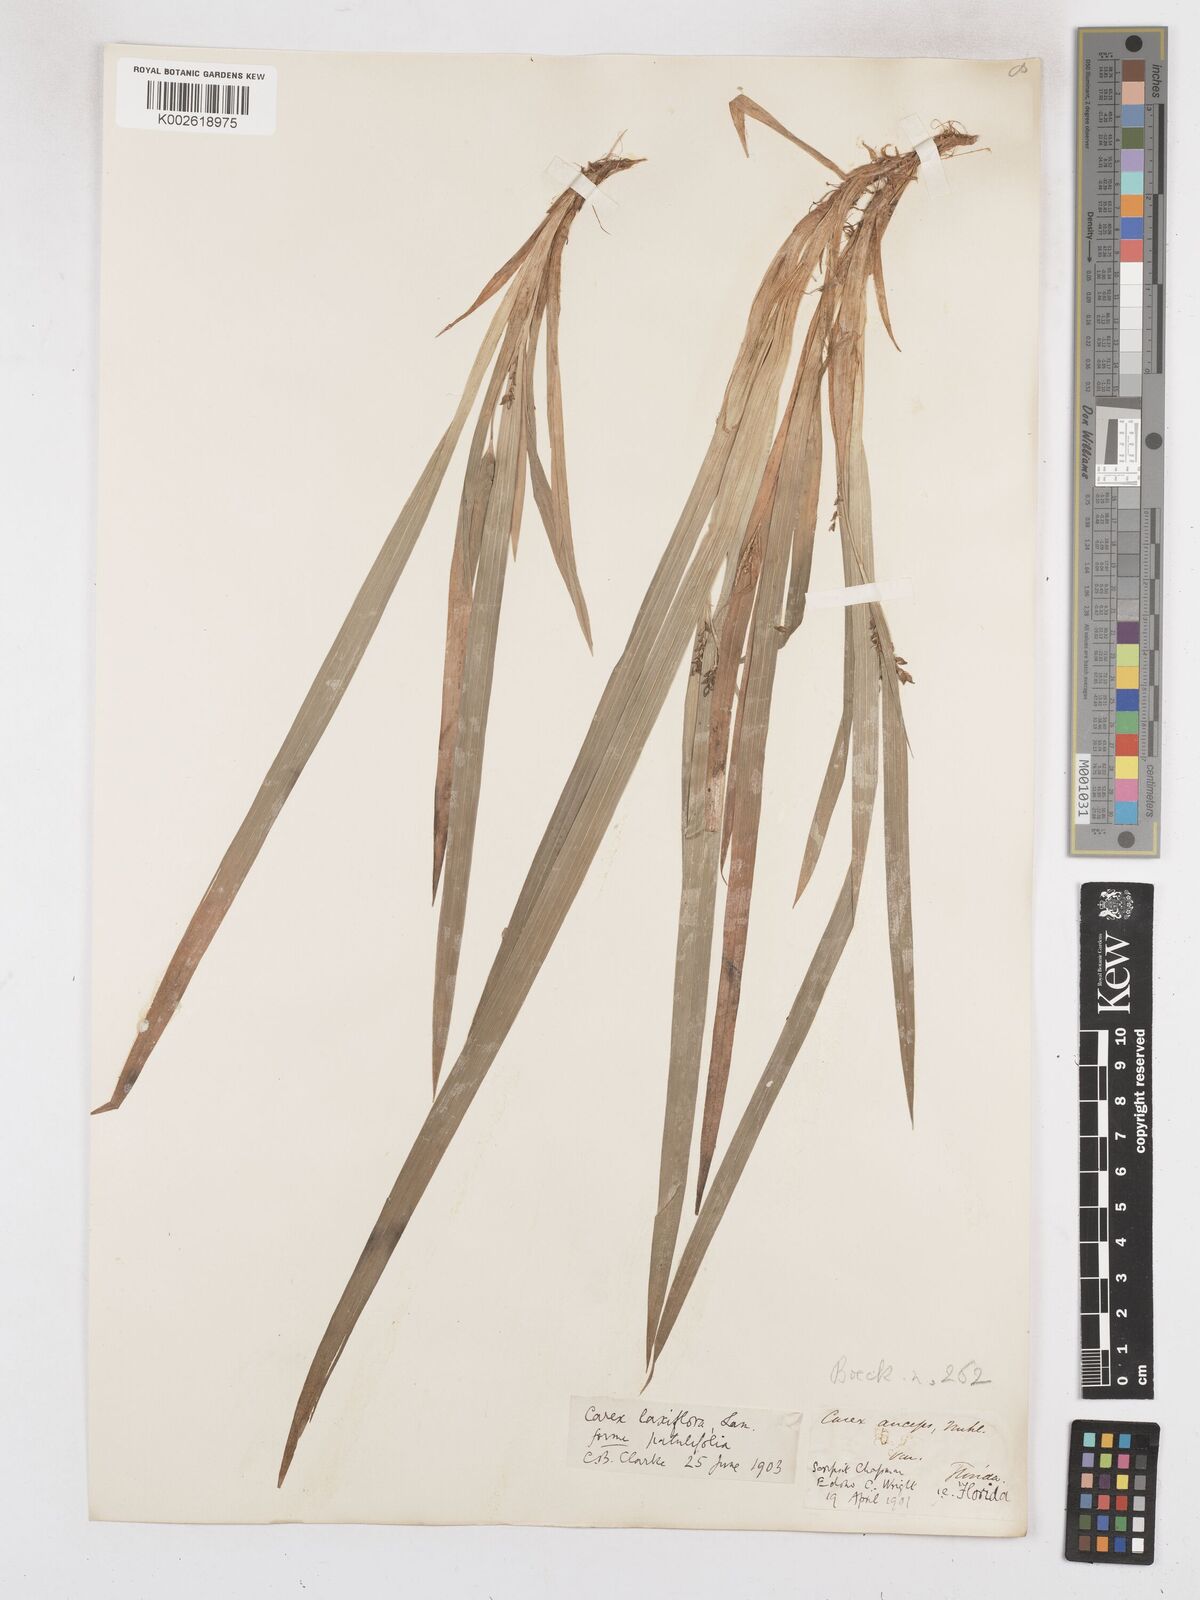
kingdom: Plantae
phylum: Tracheophyta
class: Liliopsida
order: Poales
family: Cyperaceae
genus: Carex
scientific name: Carex striatula
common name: Lined sedge
